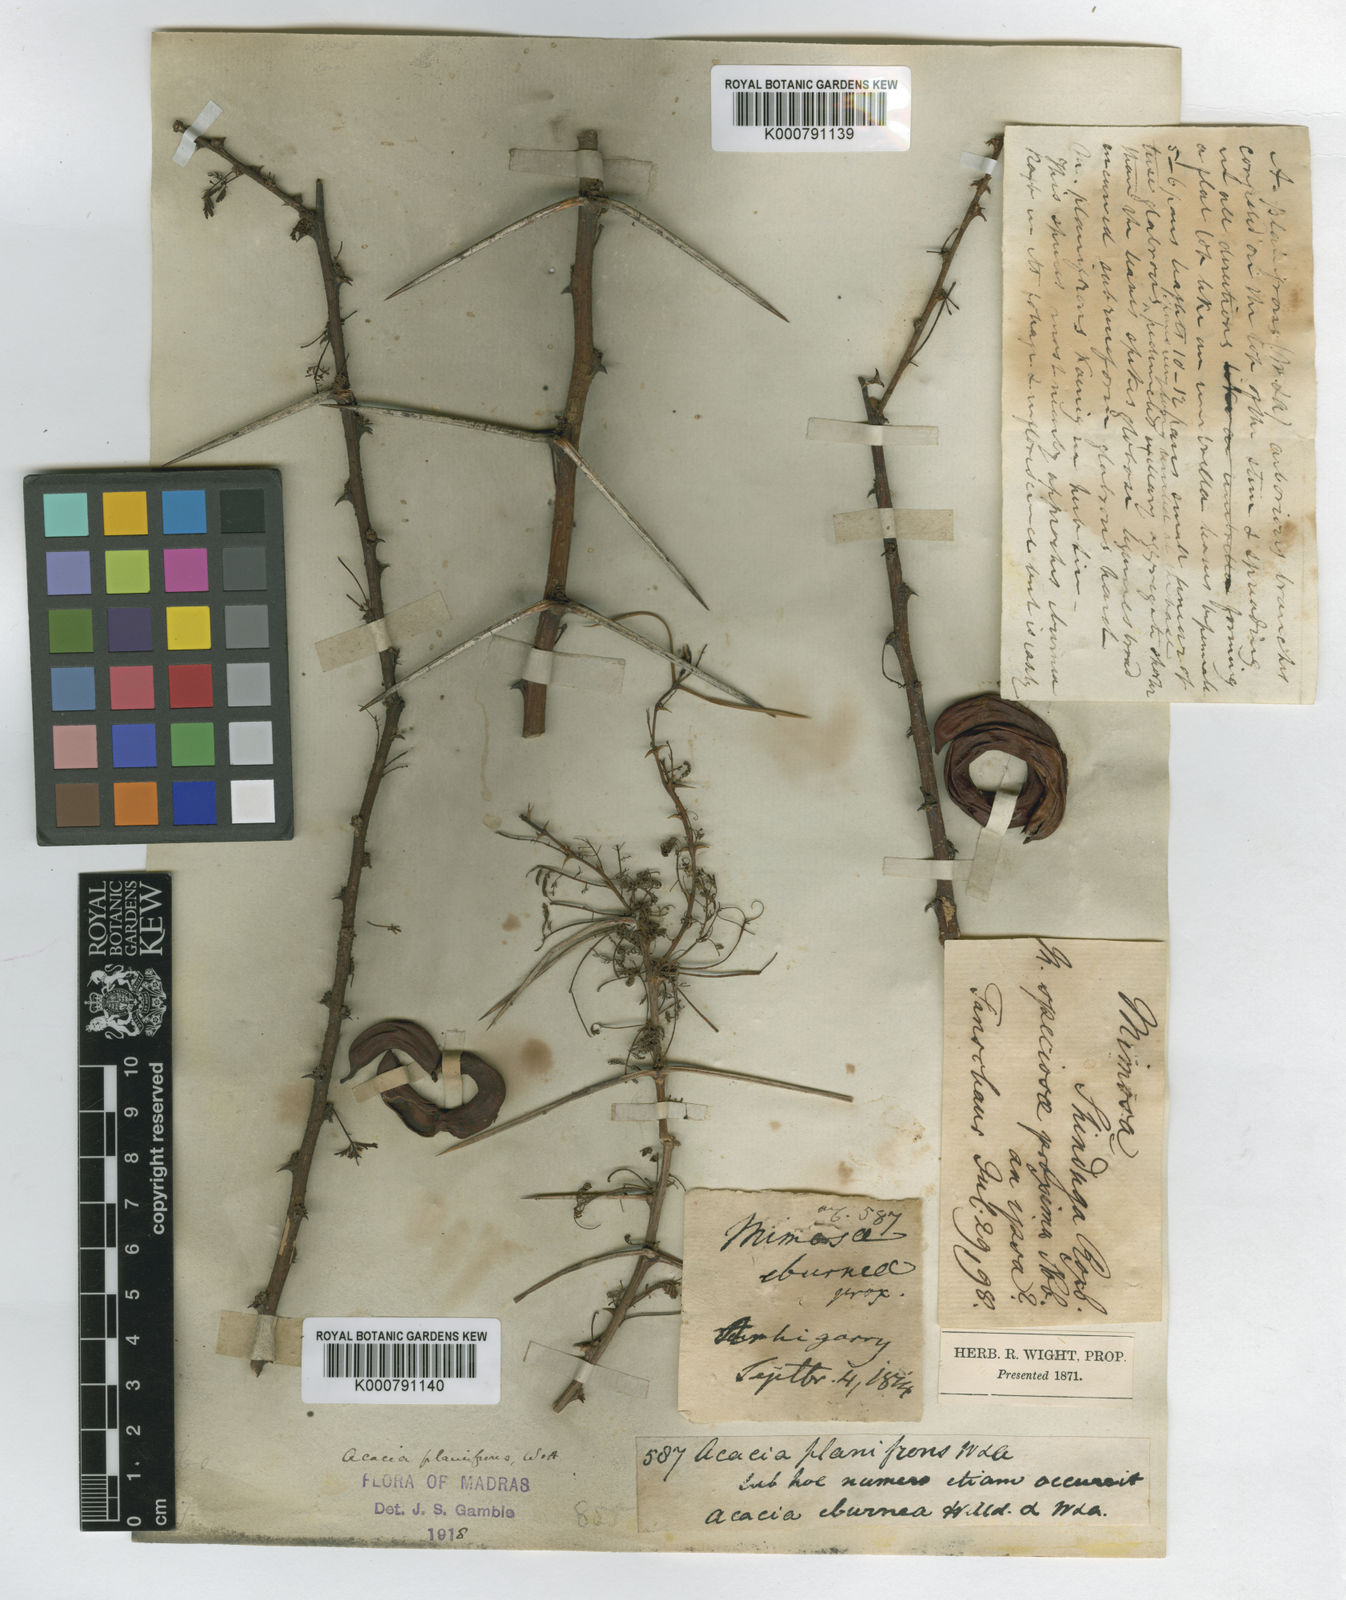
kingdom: Plantae
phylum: Tracheophyta
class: Magnoliopsida
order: Fabales
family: Fabaceae
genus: Vachellia
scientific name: Vachellia planifrons
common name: Umbrella-thorn
